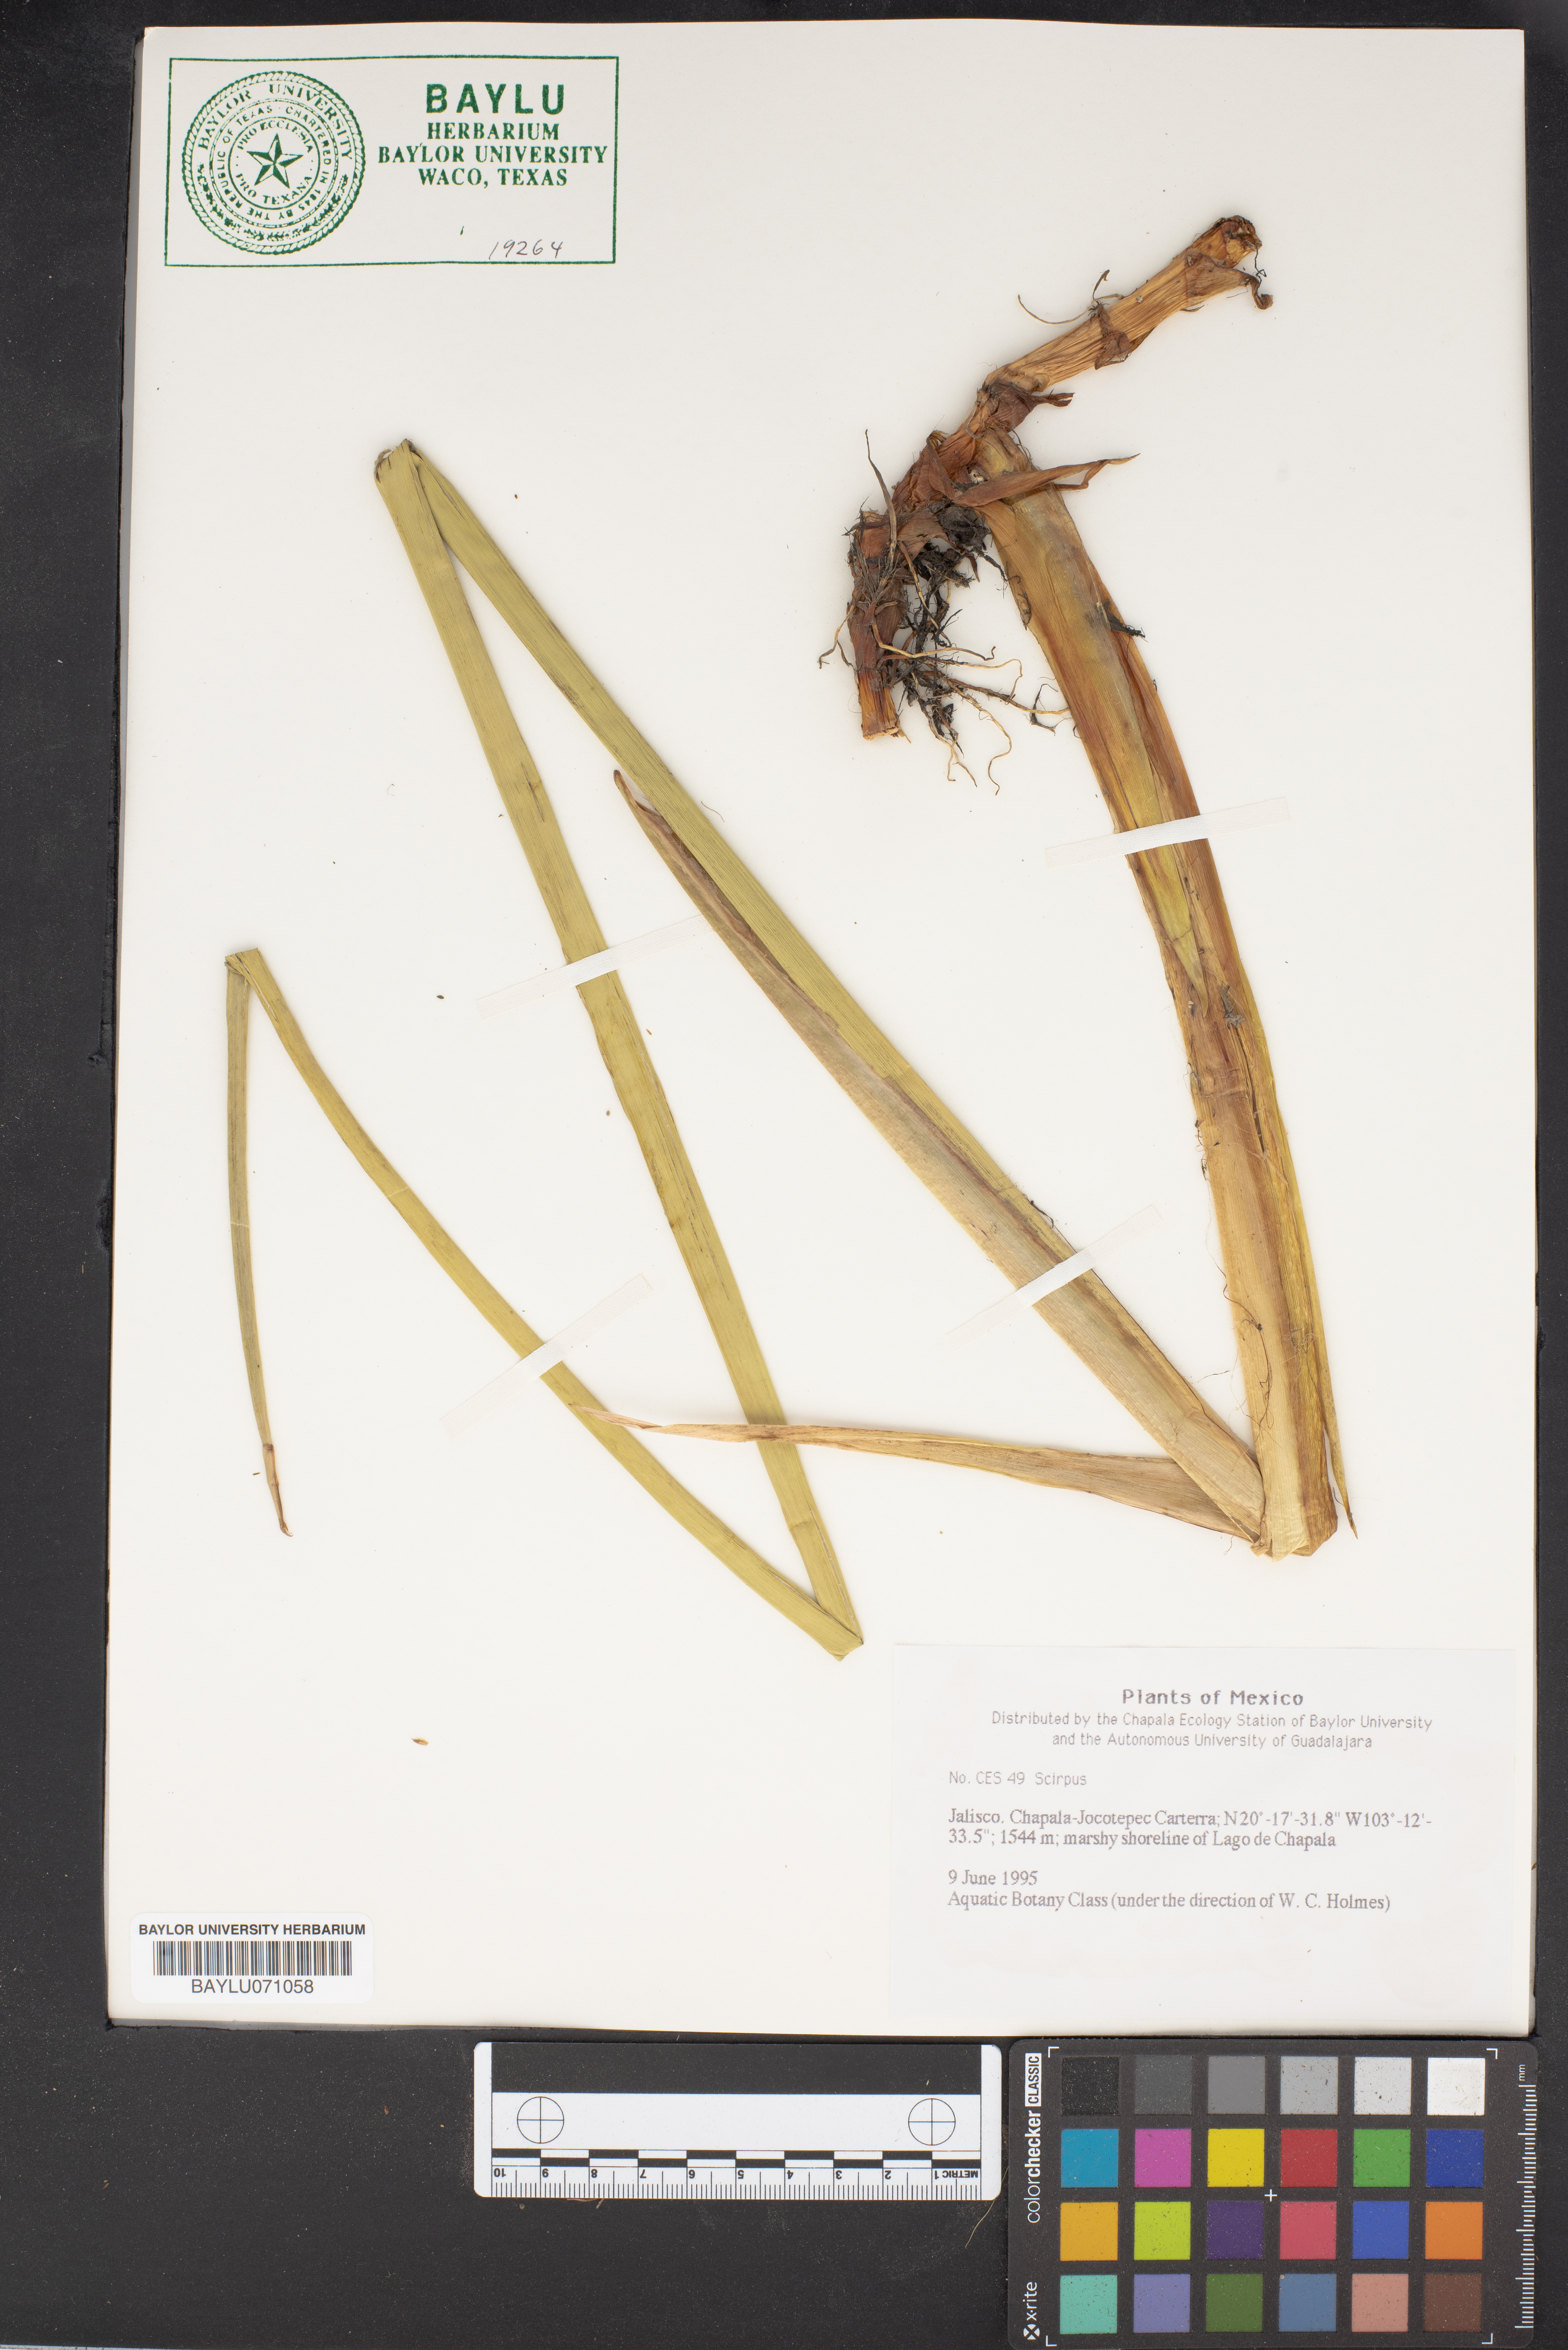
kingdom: Plantae
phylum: Tracheophyta
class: Liliopsida
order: Poales
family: Cyperaceae
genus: Scirpus
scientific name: Scirpus
